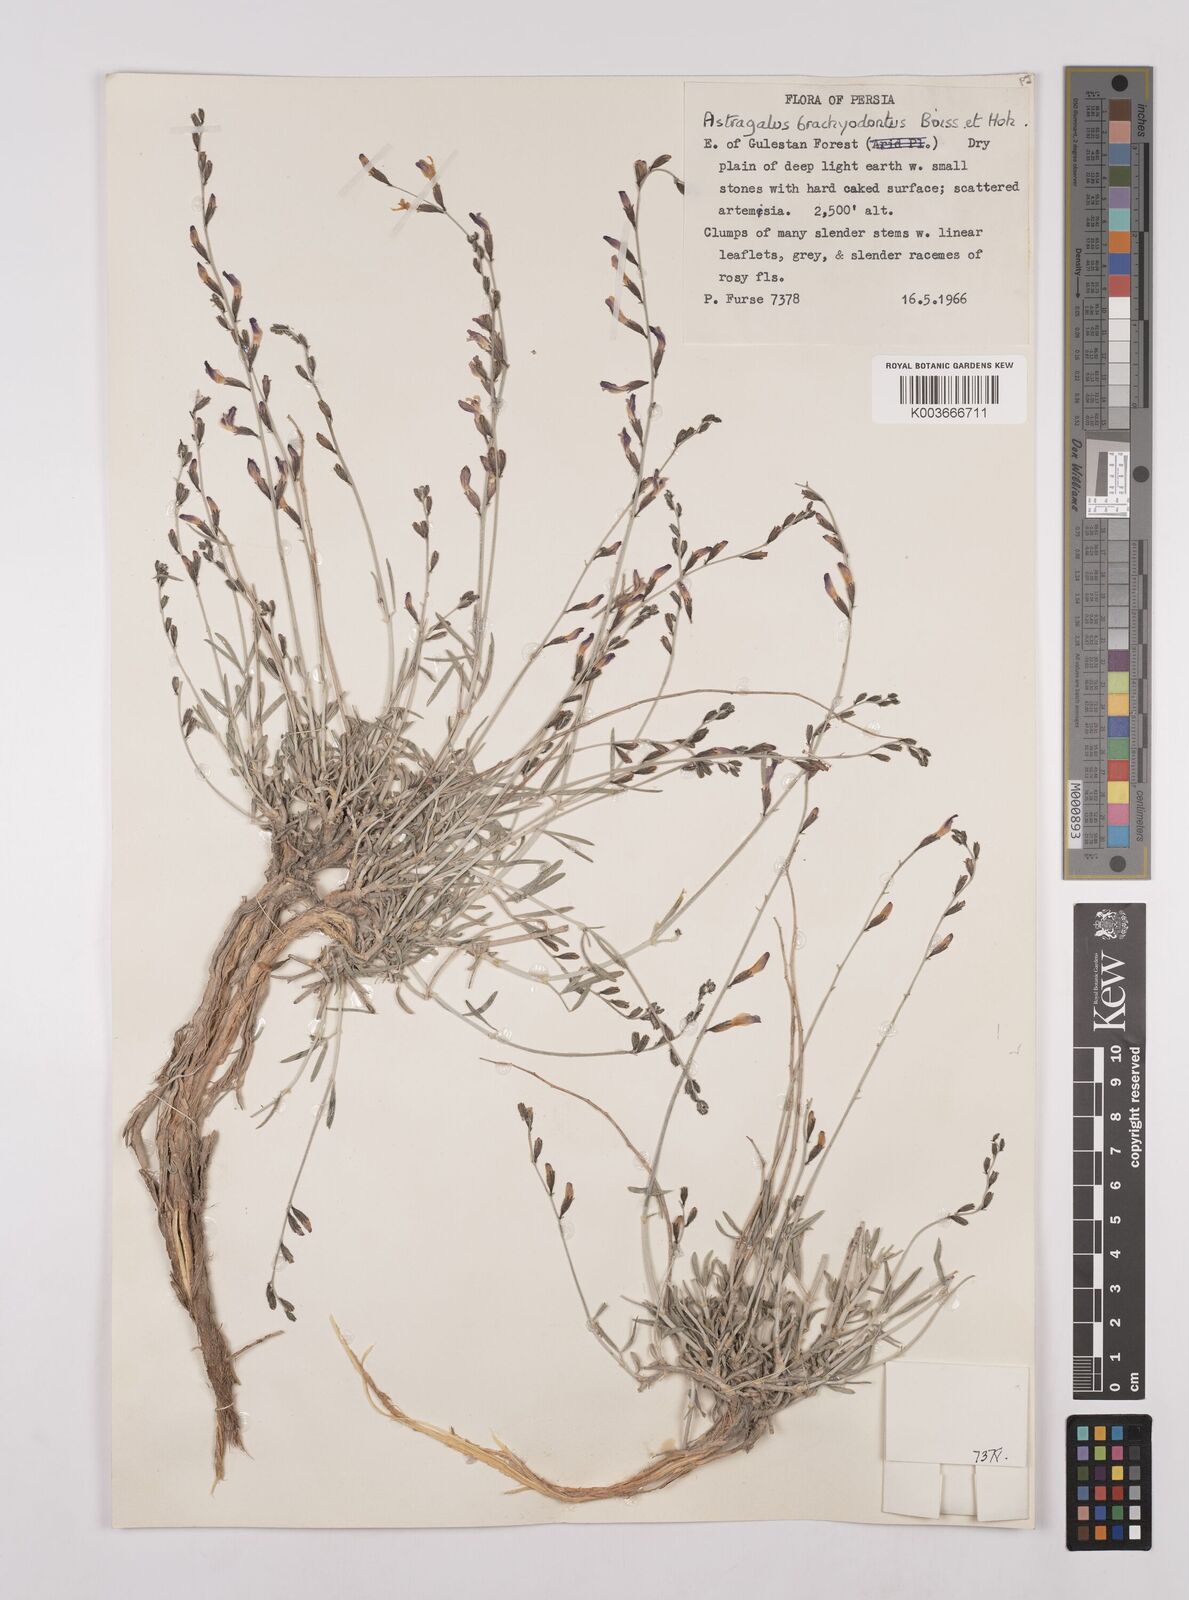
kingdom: Plantae
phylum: Tracheophyta
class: Magnoliopsida
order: Fabales
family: Fabaceae
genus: Astragalus
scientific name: Astragalus podolobus
